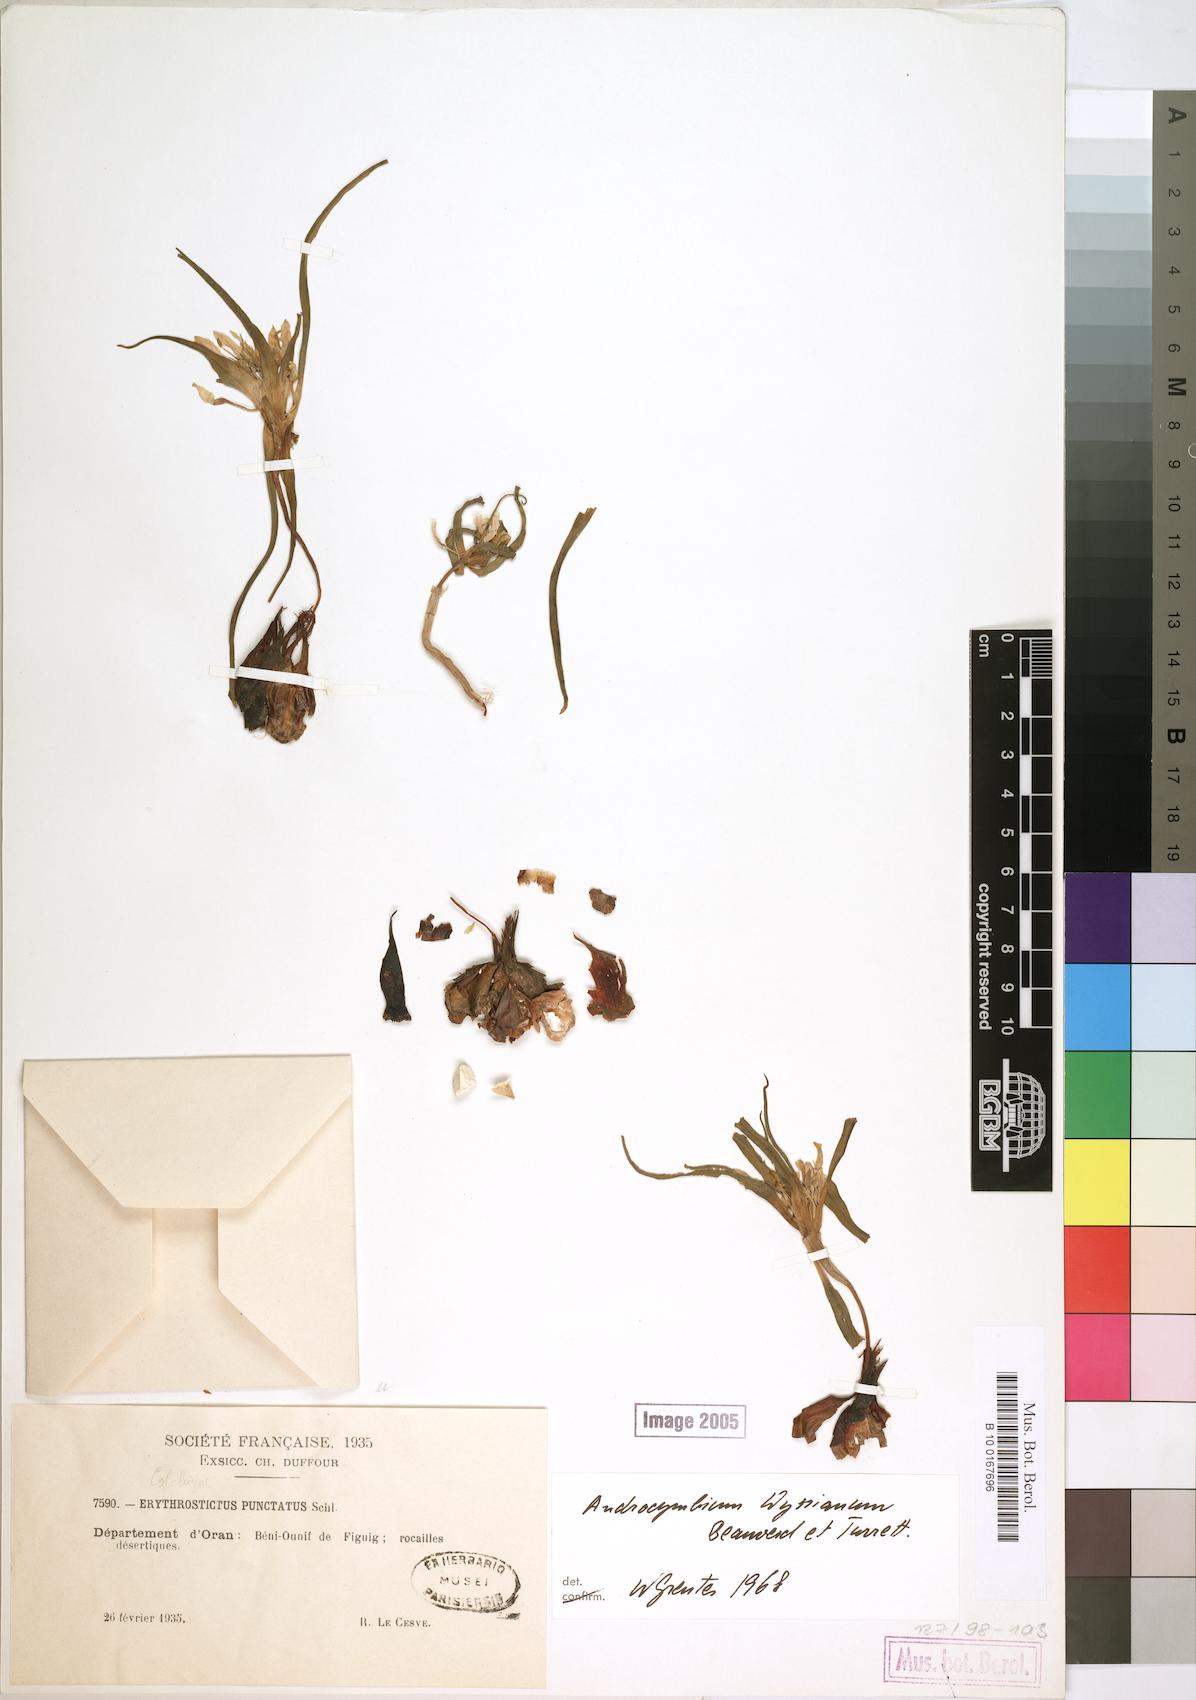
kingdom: Plantae
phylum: Tracheophyta
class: Liliopsida
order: Liliales
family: Colchicaceae
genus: Colchicum
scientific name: Colchicum gramineum
